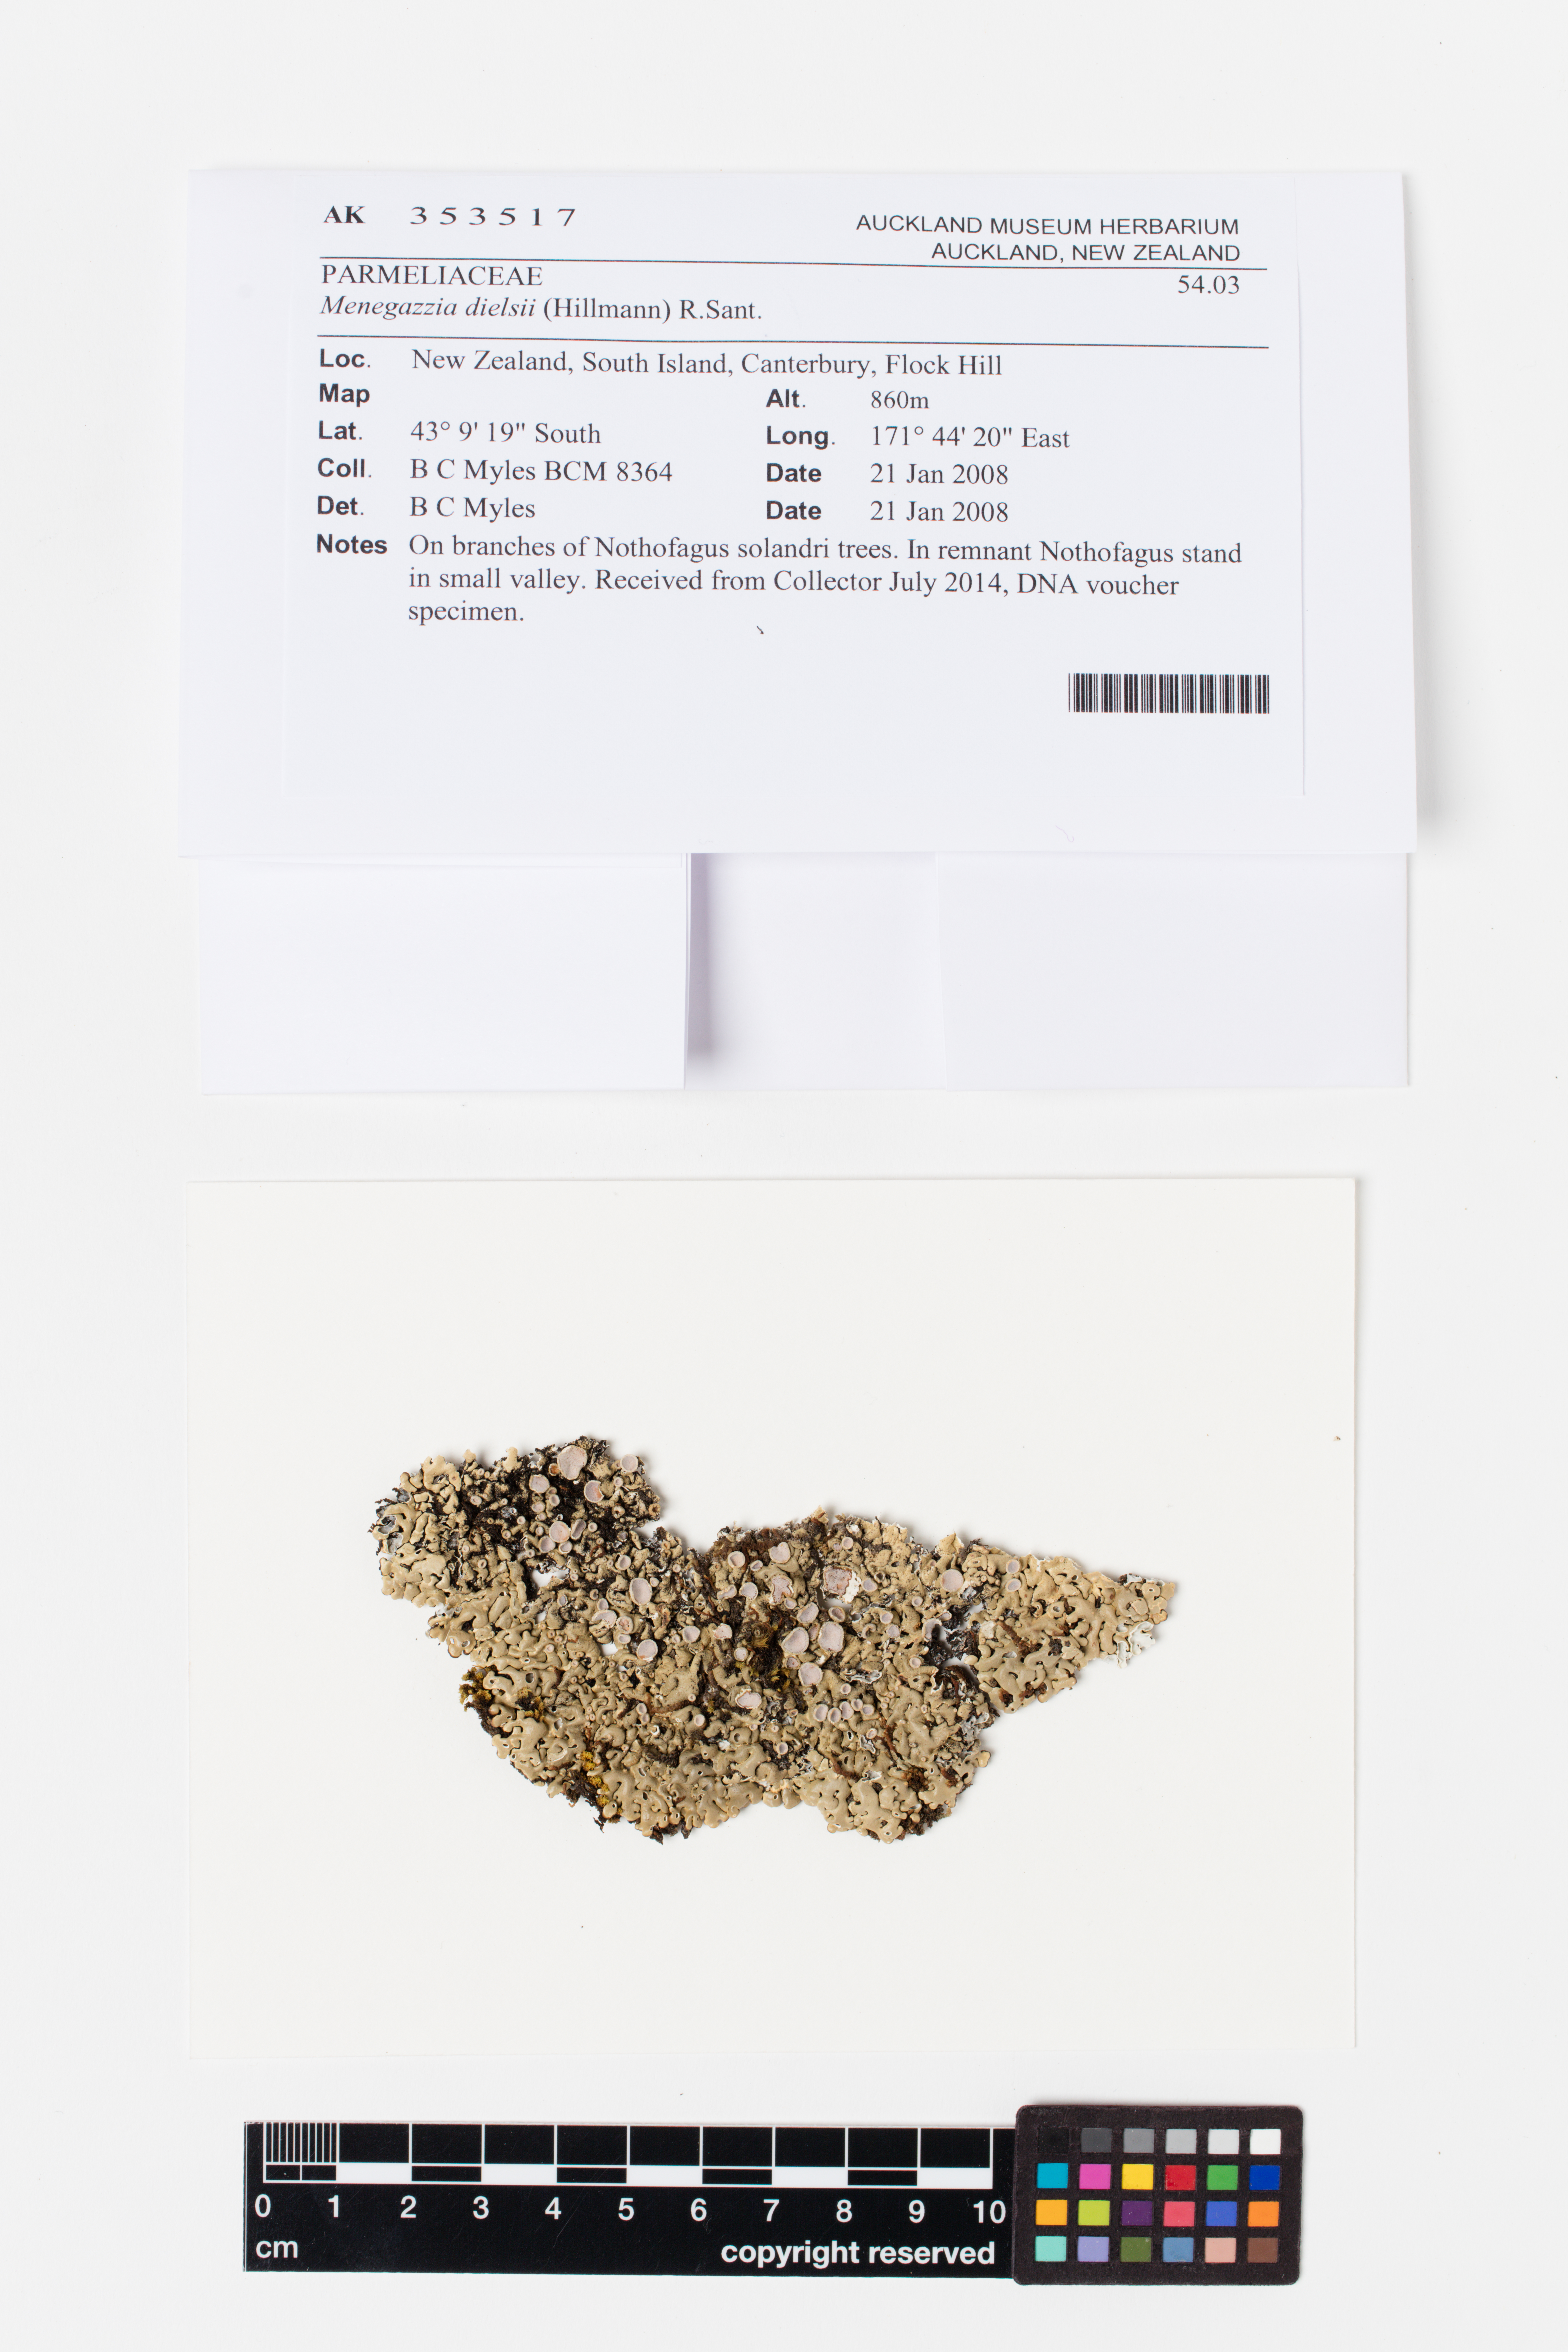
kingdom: Fungi
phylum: Ascomycota
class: Lecanoromycetes
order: Lecanorales
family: Parmeliaceae
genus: Menegazzia
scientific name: Menegazzia dielsii
